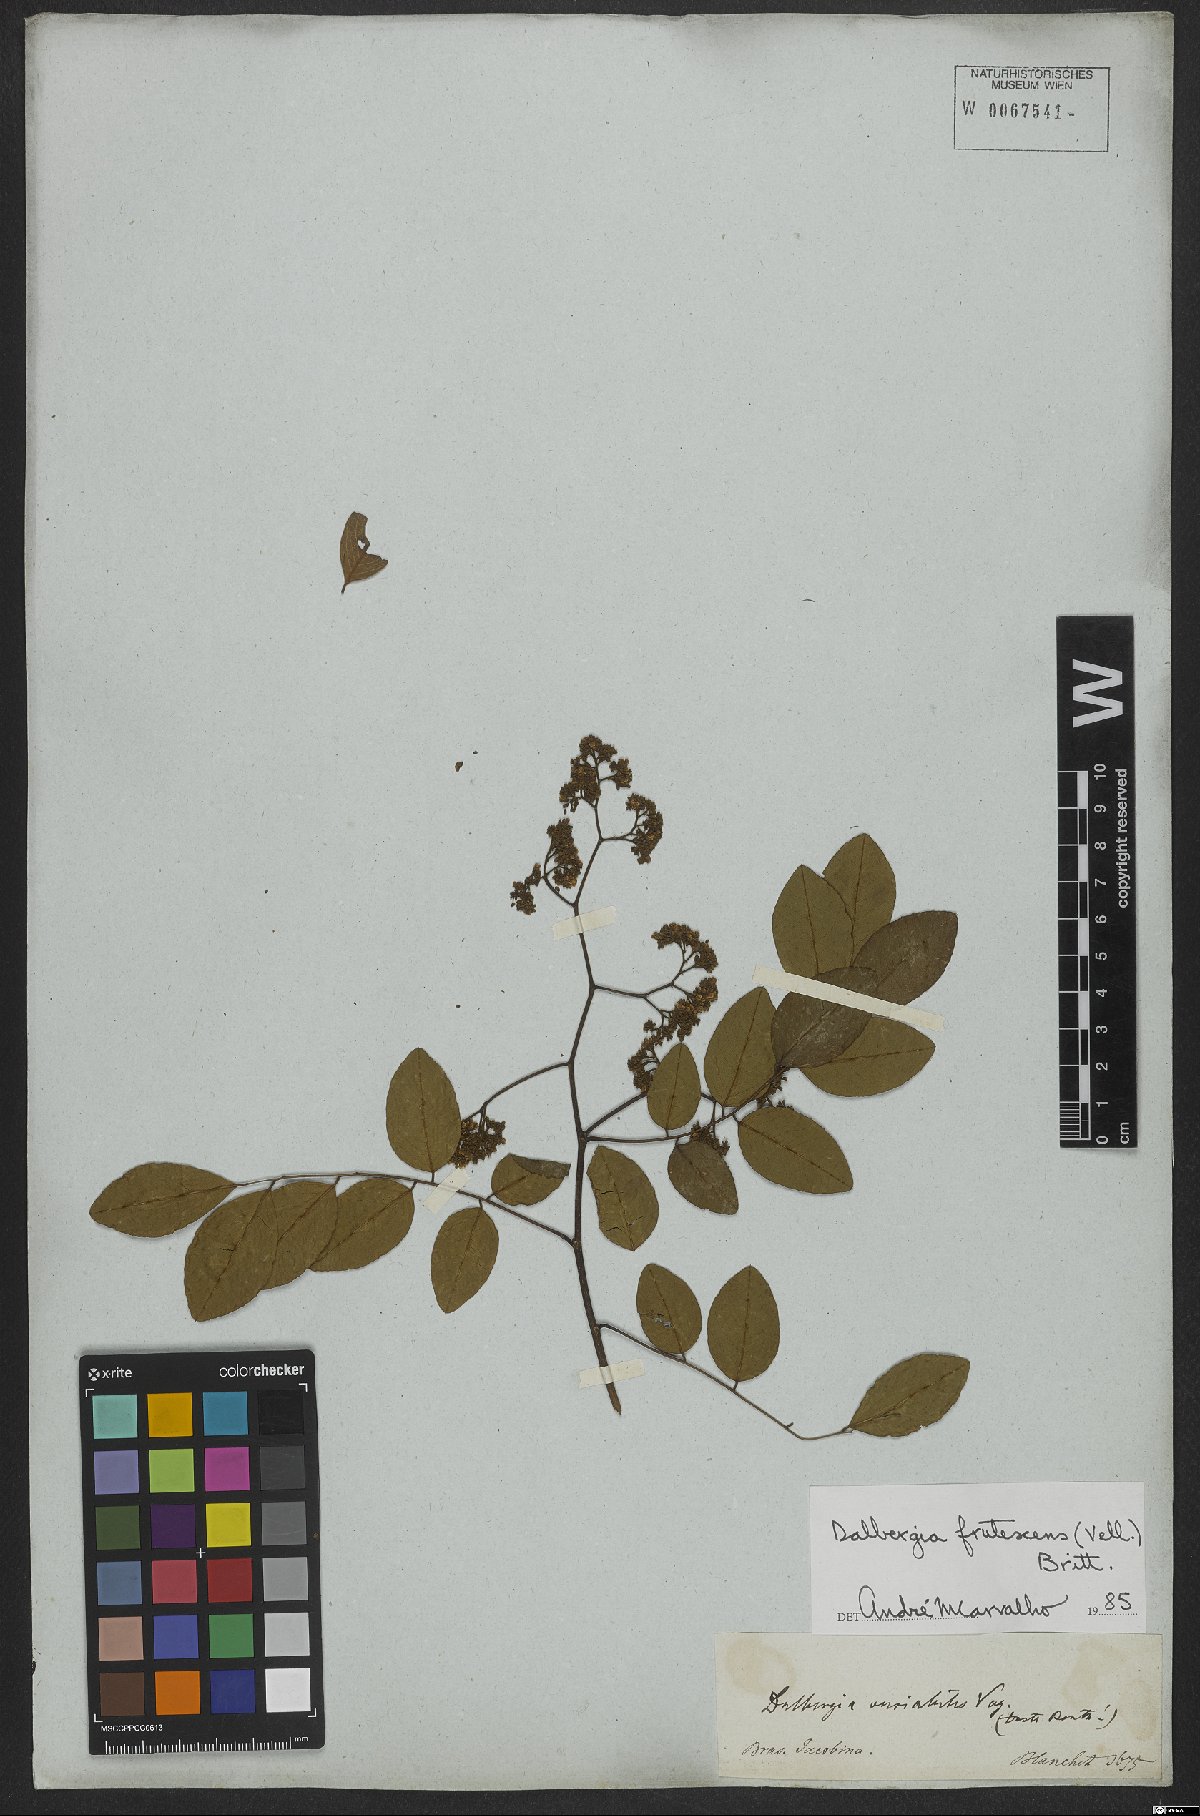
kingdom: Plantae
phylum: Tracheophyta
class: Magnoliopsida
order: Fabales
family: Fabaceae
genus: Dalbergia
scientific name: Dalbergia frutescens
